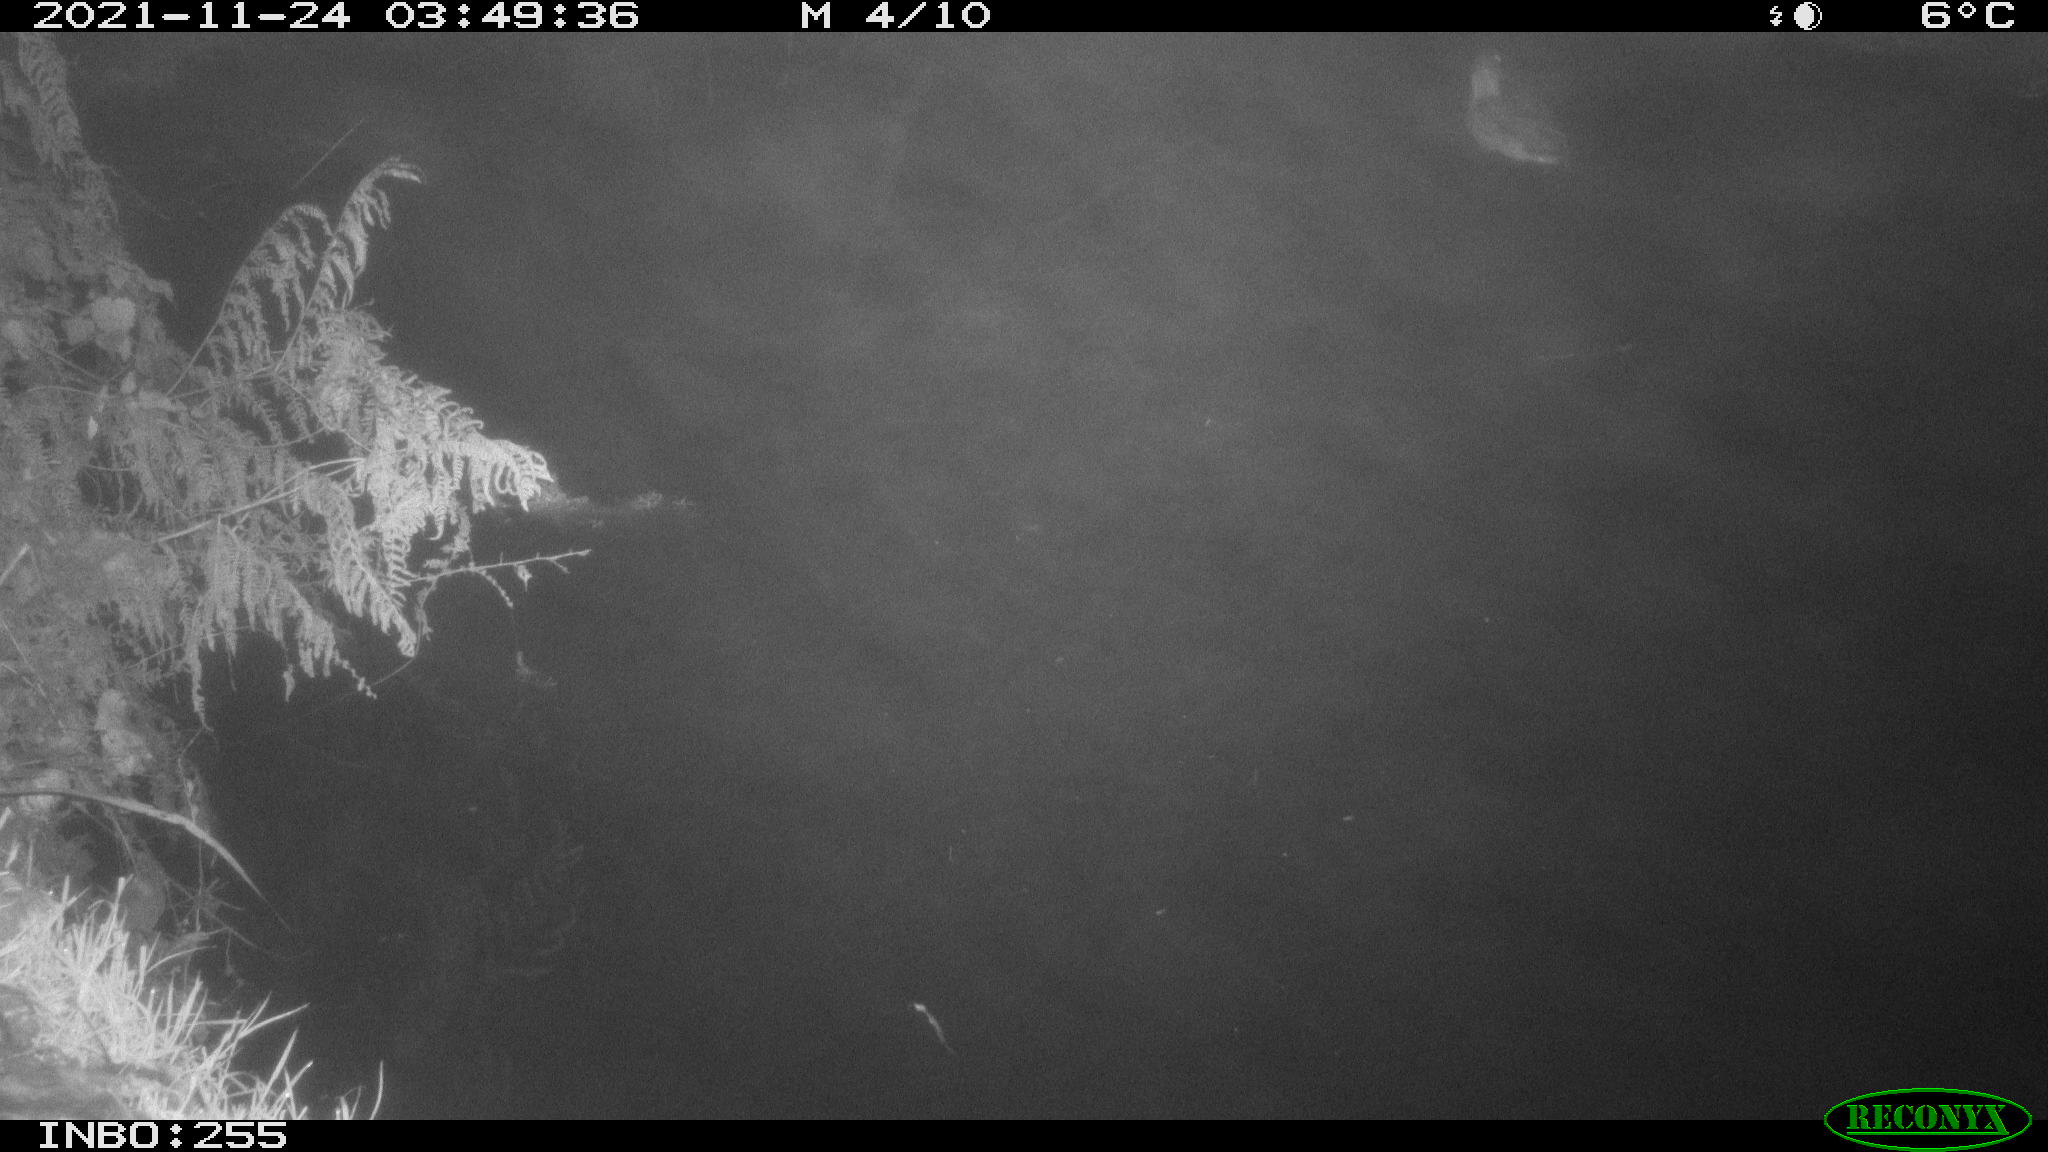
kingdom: Animalia
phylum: Chordata
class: Aves
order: Anseriformes
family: Anatidae
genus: Anas
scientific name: Anas platyrhynchos
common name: Mallard
